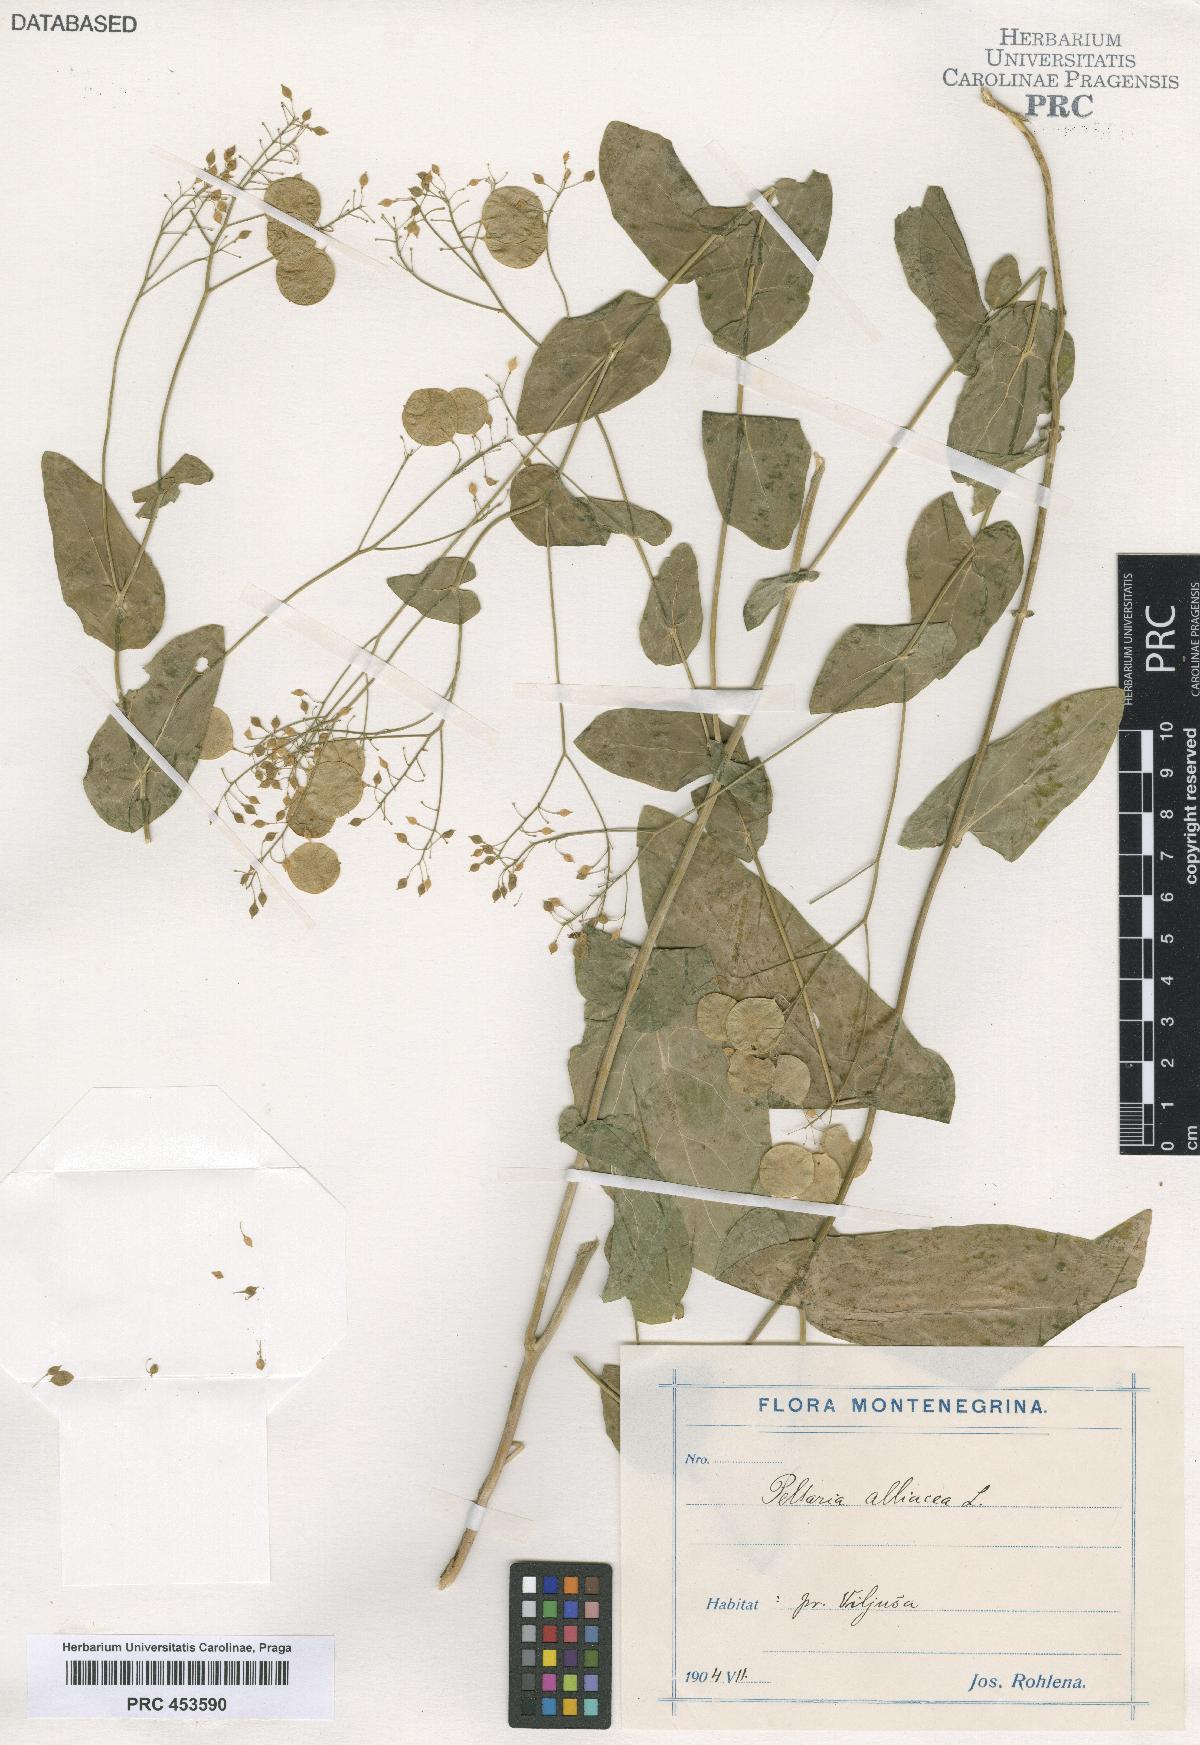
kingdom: Plantae
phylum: Tracheophyta
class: Magnoliopsida
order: Brassicales
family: Brassicaceae
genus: Peltaria
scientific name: Peltaria alliacea
